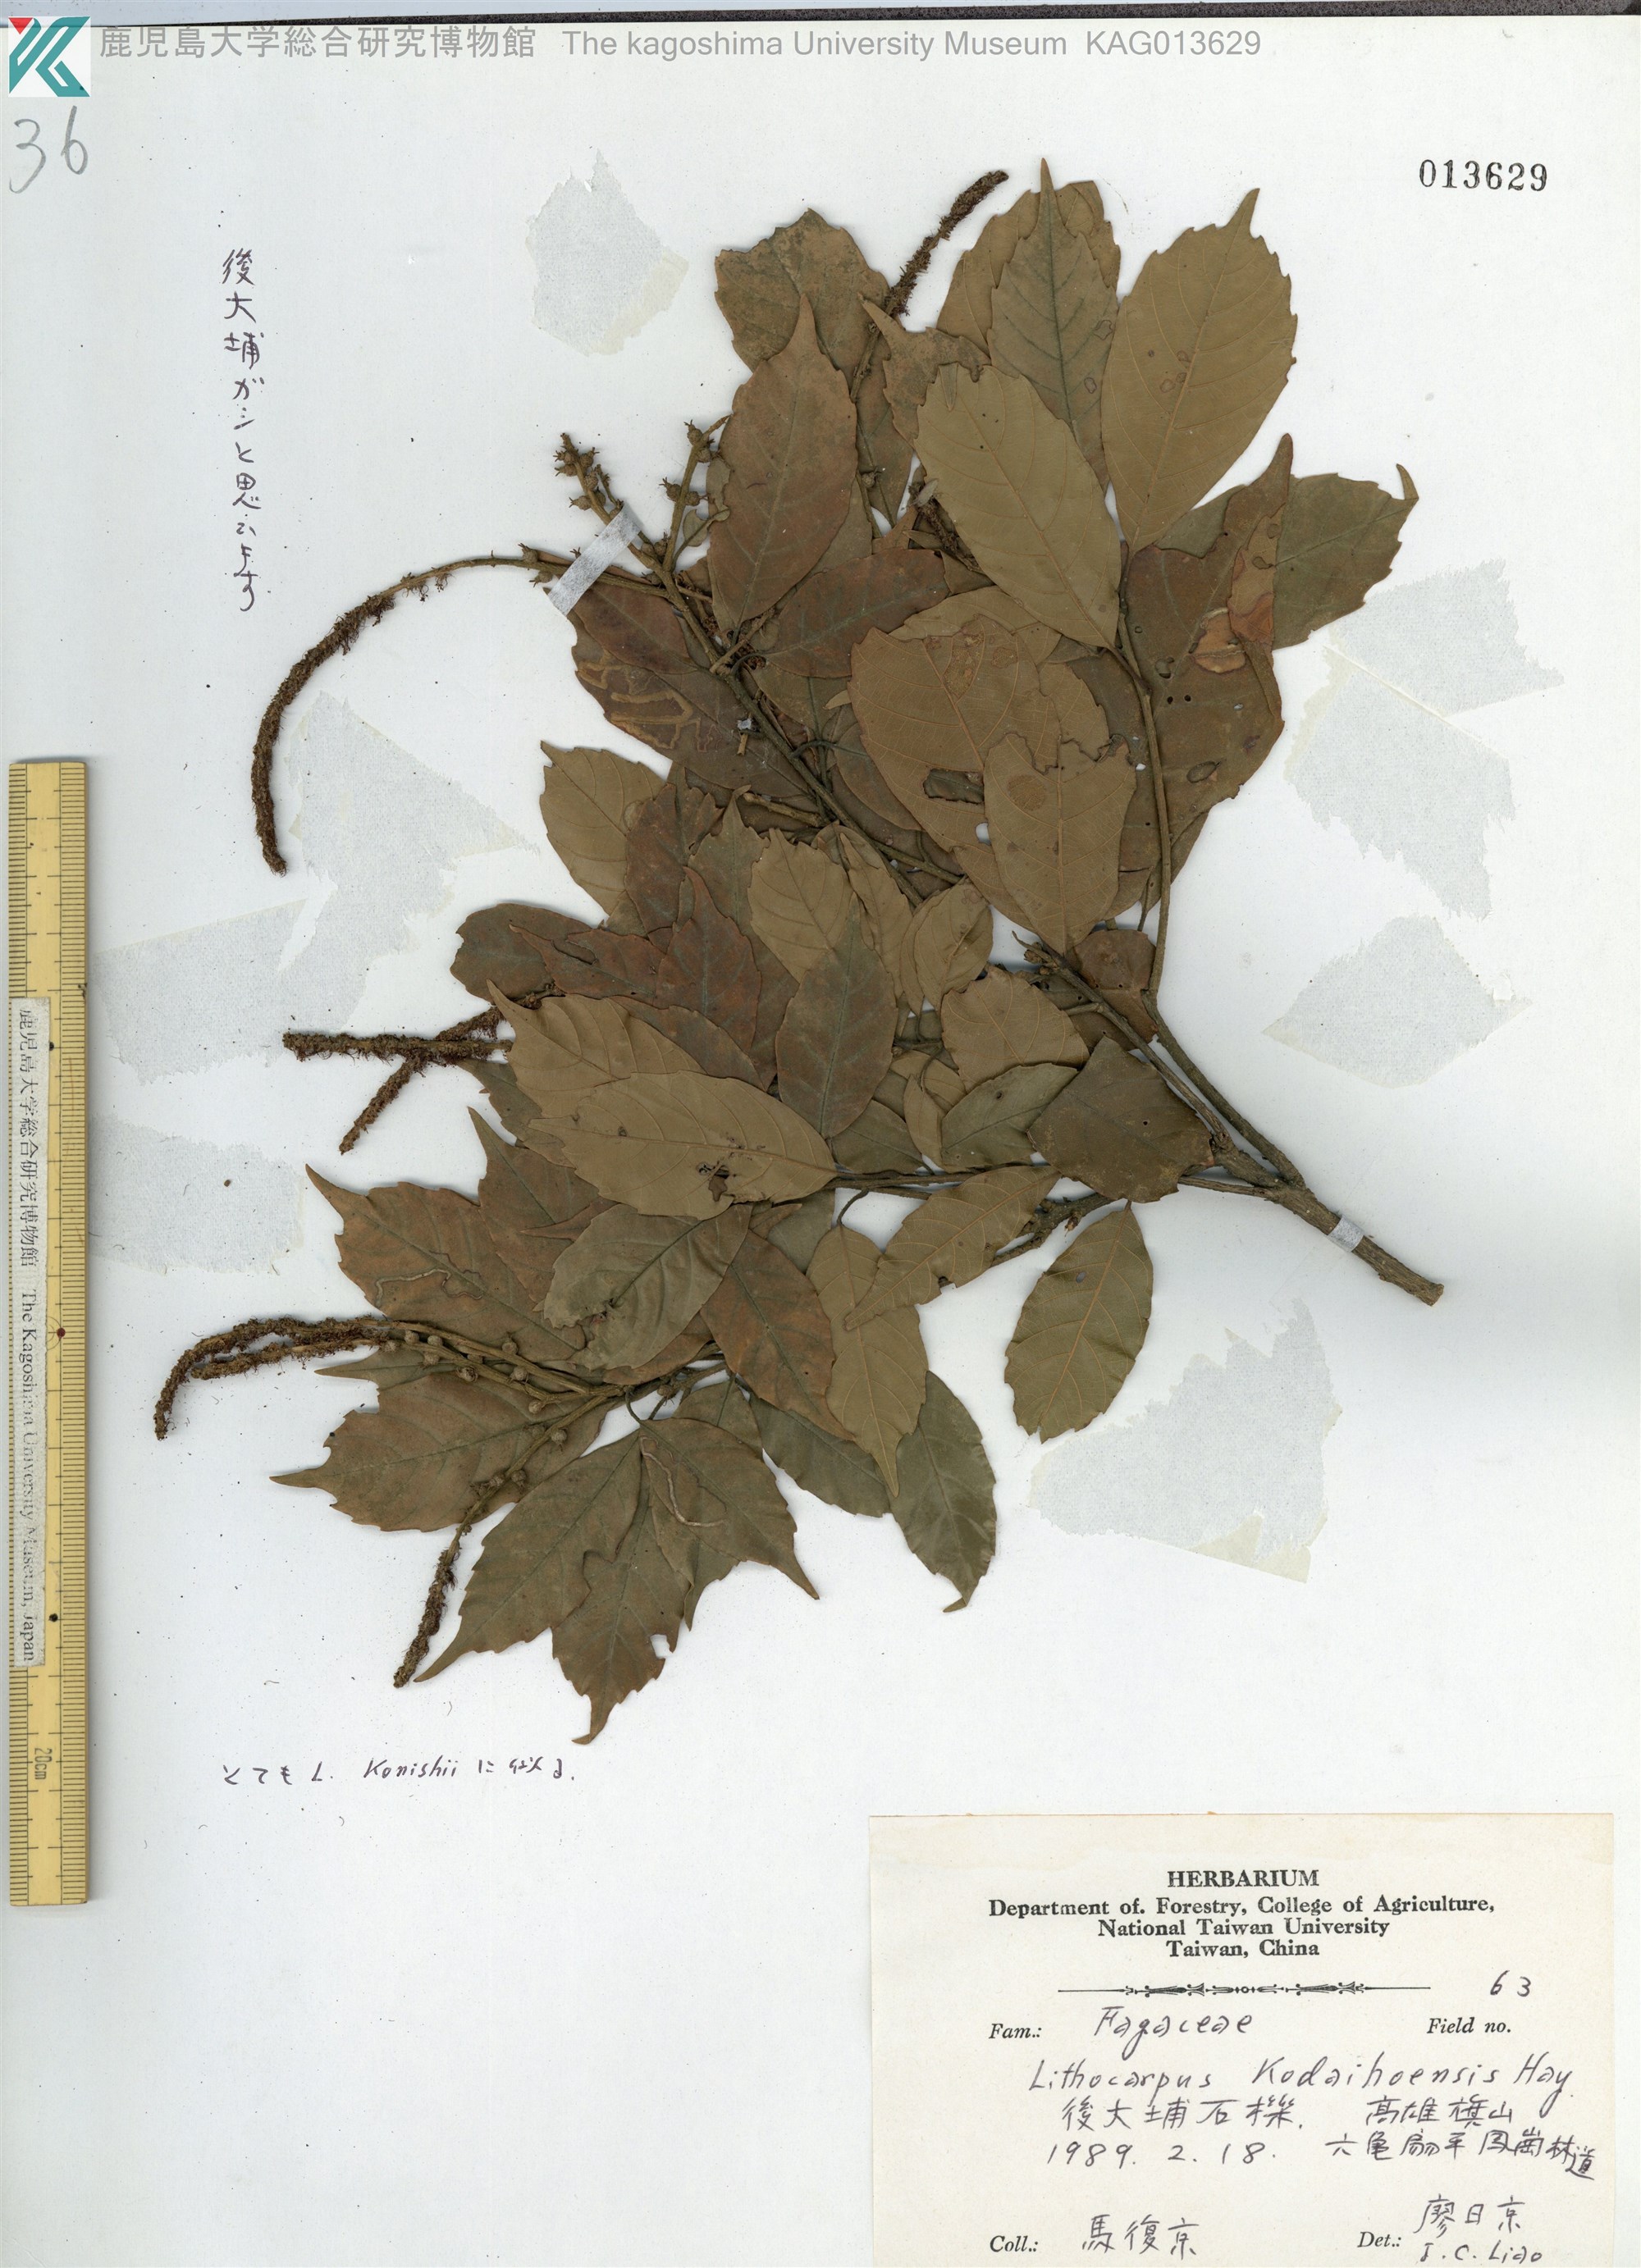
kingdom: Plantae
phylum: Tracheophyta
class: Magnoliopsida
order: Fagales
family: Fagaceae
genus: Lithocarpus
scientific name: Lithocarpus corneus
